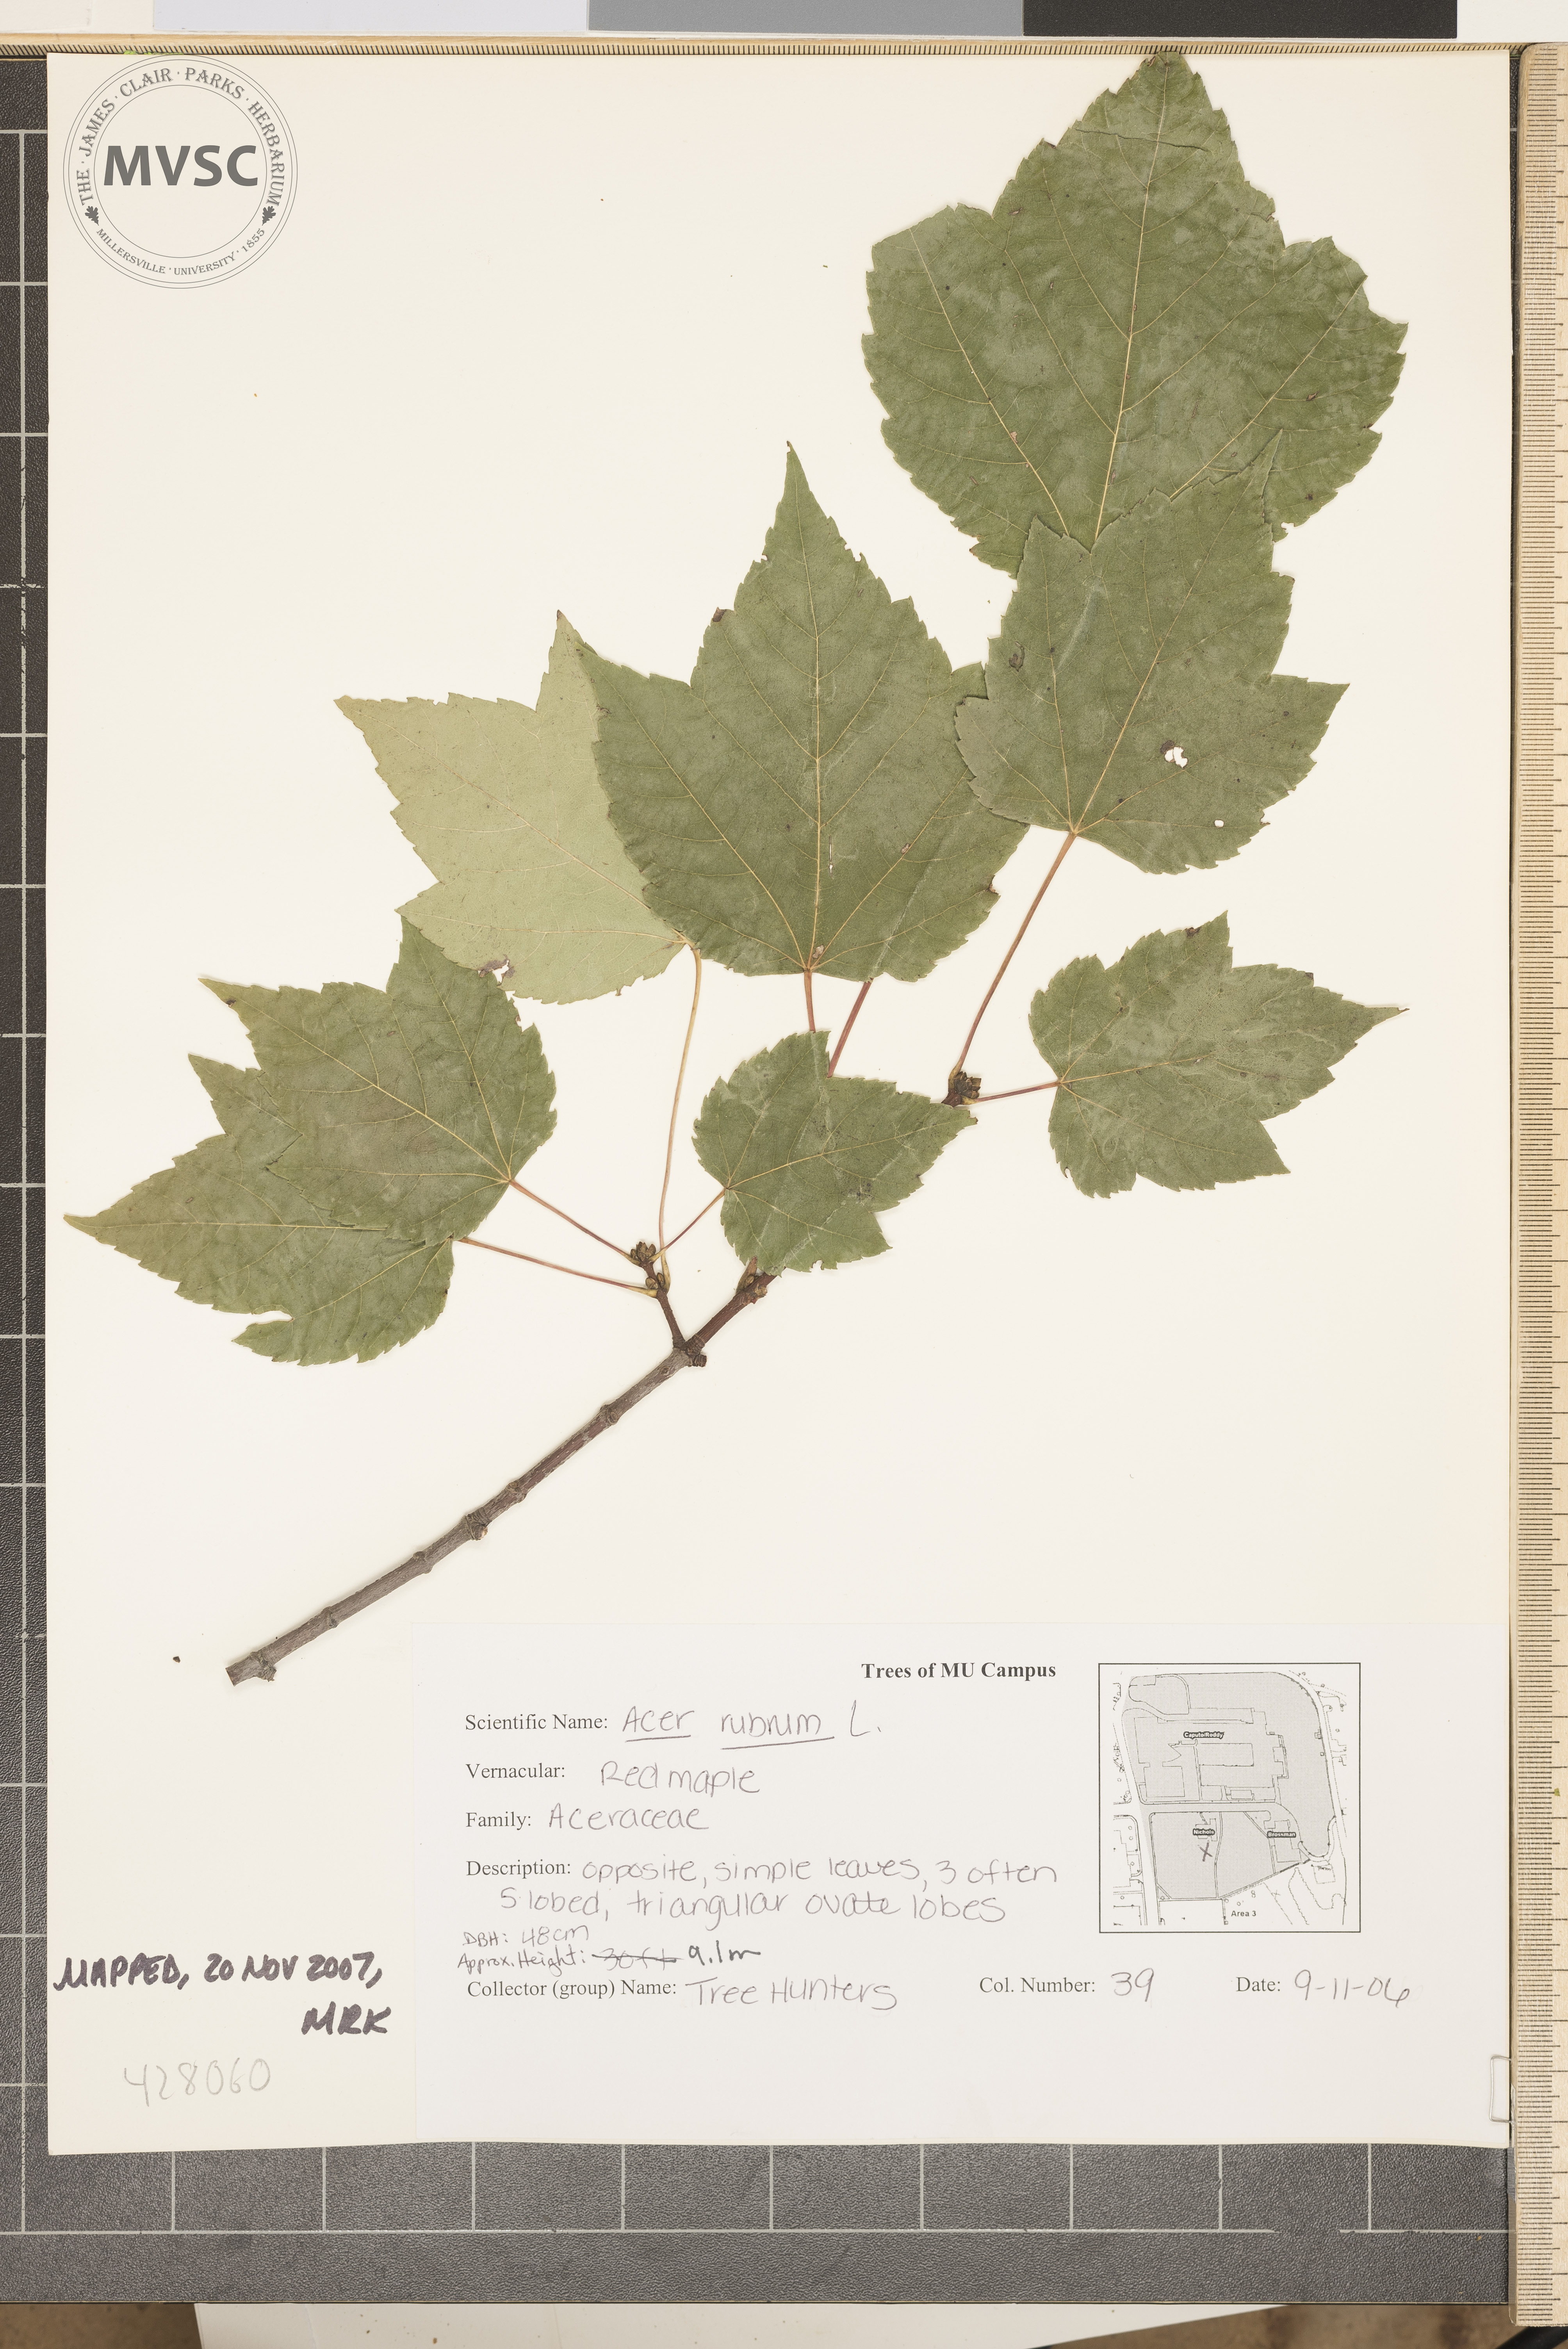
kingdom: Plantae
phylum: Tracheophyta
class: Magnoliopsida
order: Sapindales
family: Sapindaceae
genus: Acer
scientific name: Acer rubrum
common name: Red Maple
